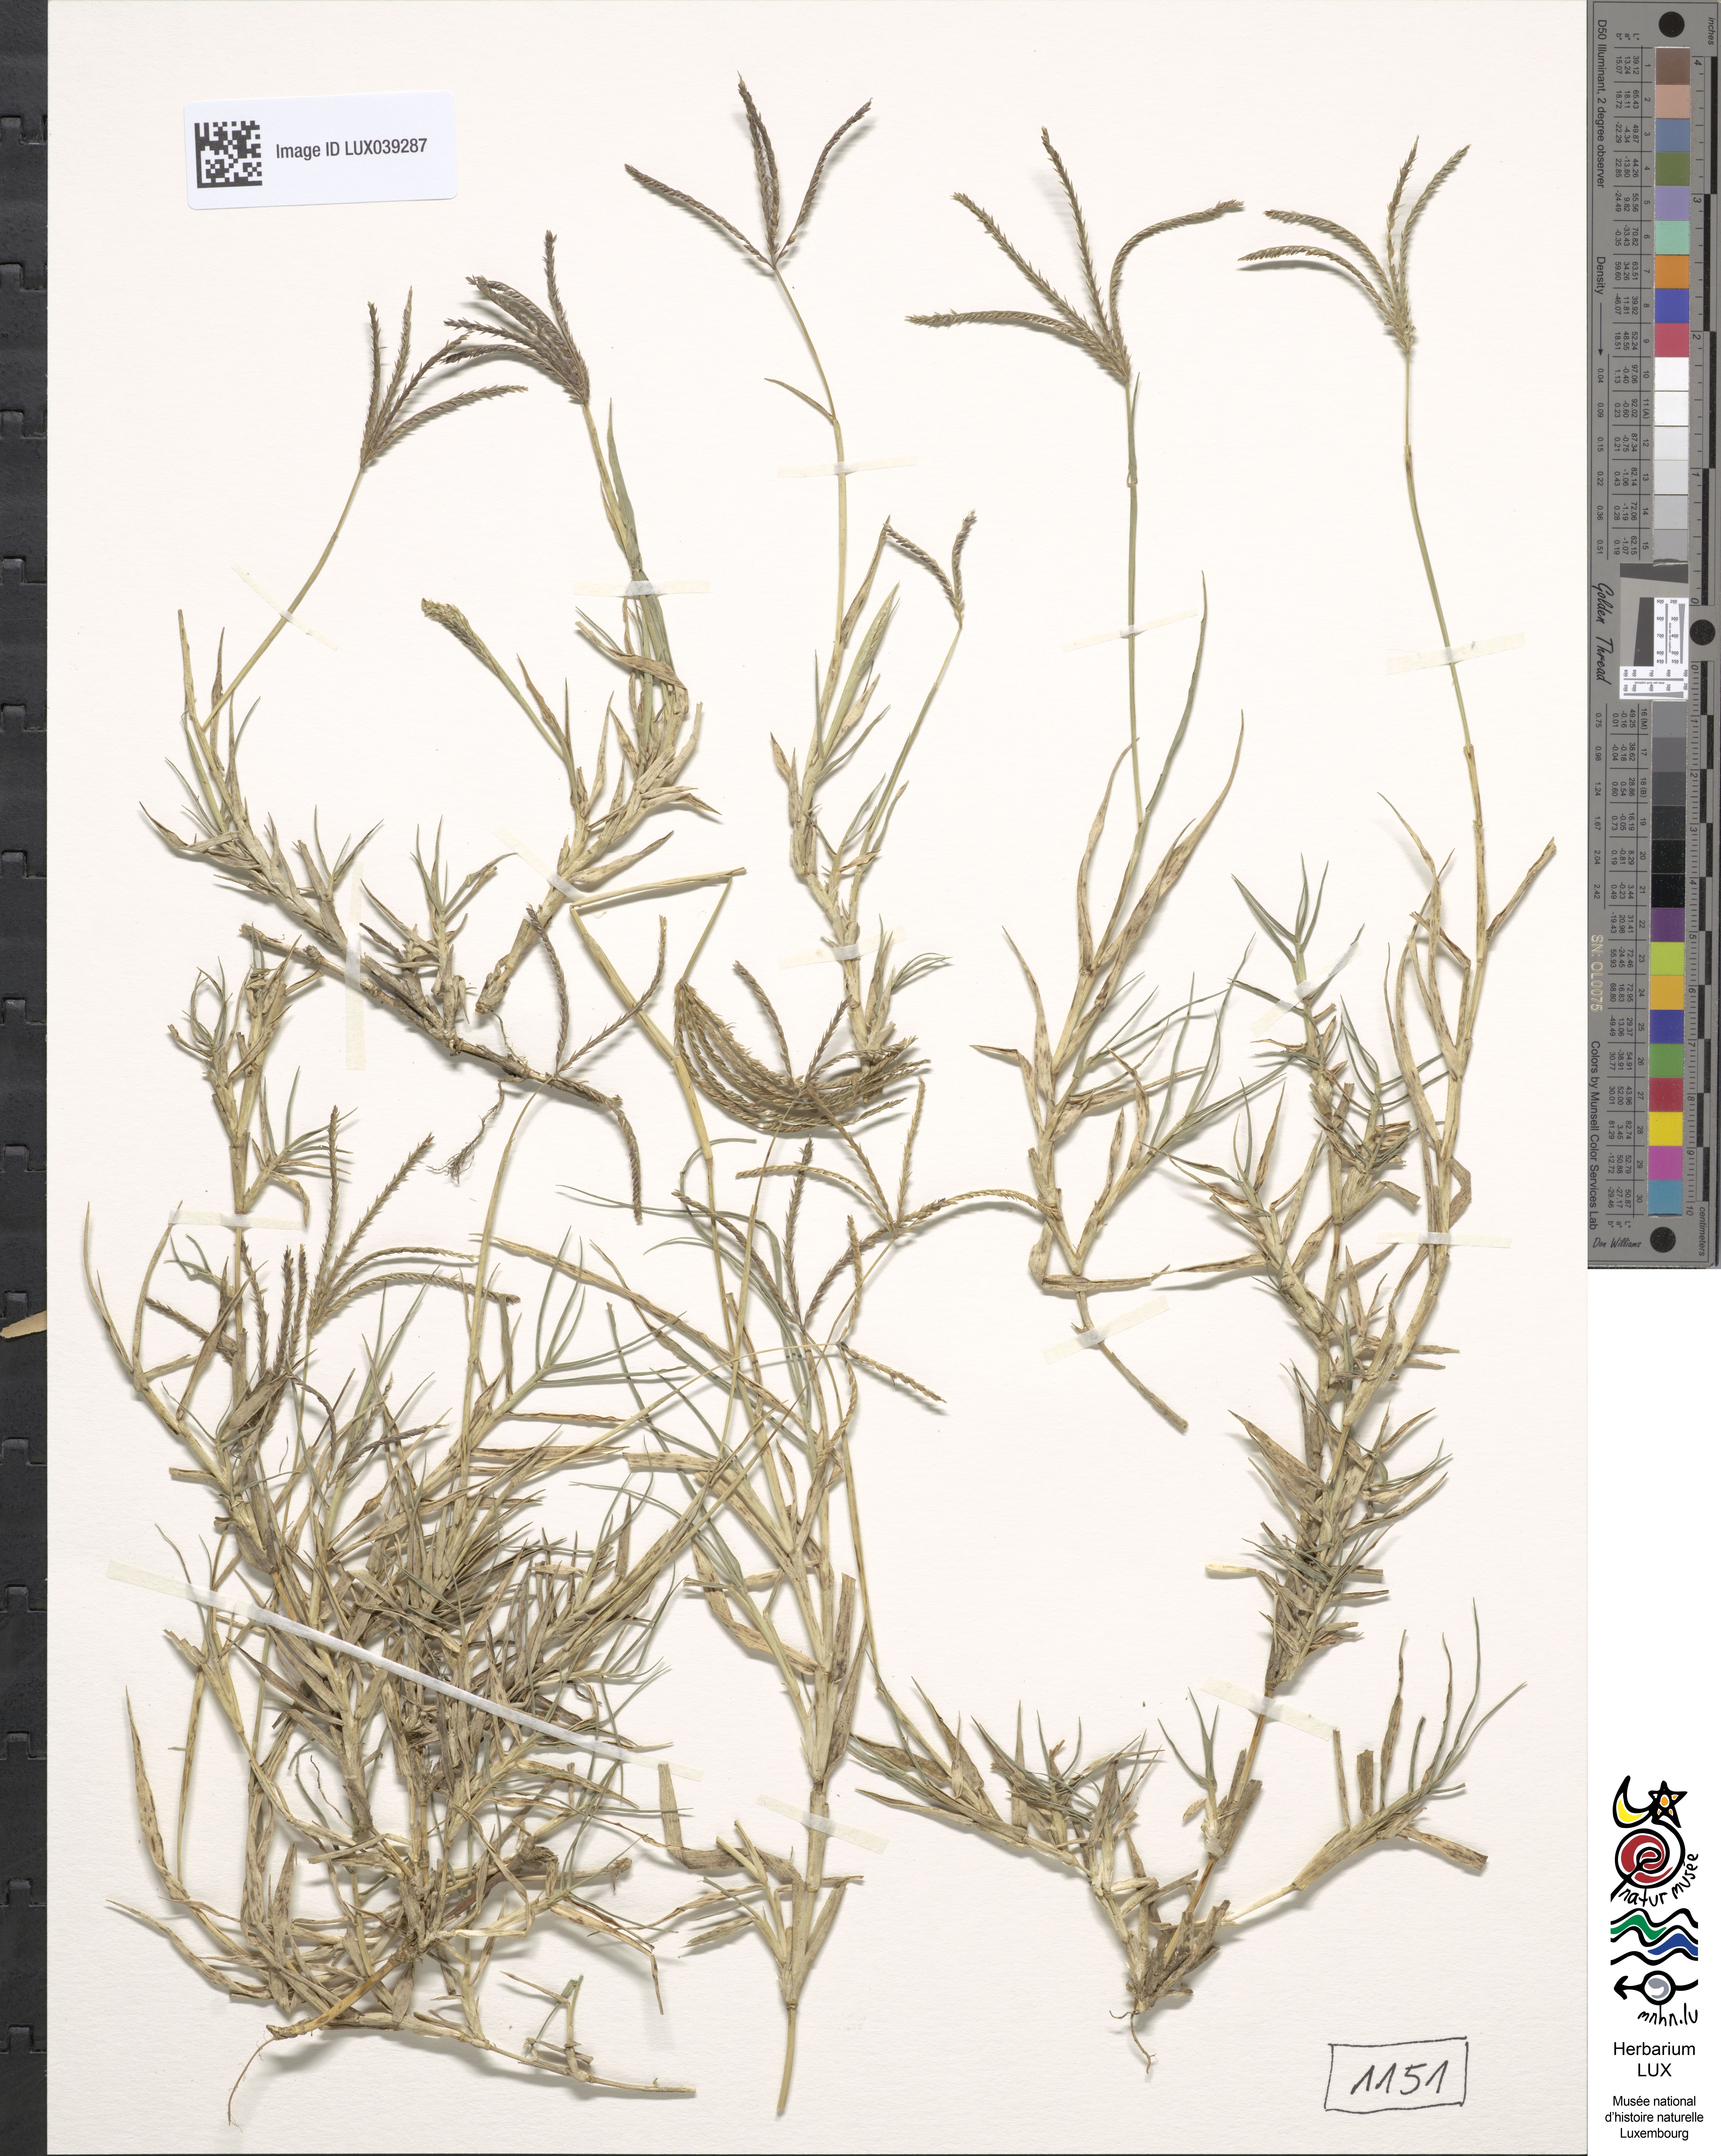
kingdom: Plantae
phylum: Tracheophyta
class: Liliopsida
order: Poales
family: Poaceae
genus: Cynodon
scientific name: Cynodon dactylon
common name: Bermuda grass
